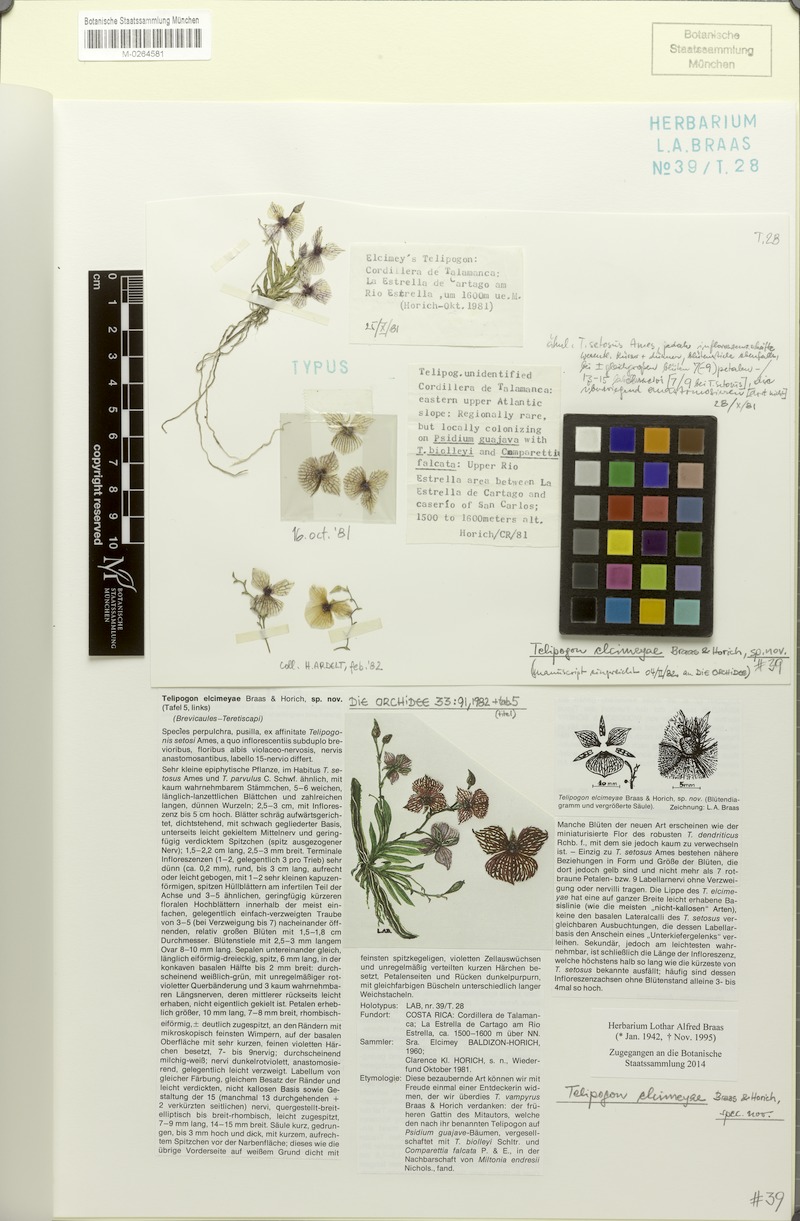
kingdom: Plantae
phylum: Tracheophyta
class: Liliopsida
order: Asparagales
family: Orchidaceae
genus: Telipogon
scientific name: Telipogon elcimeyae
